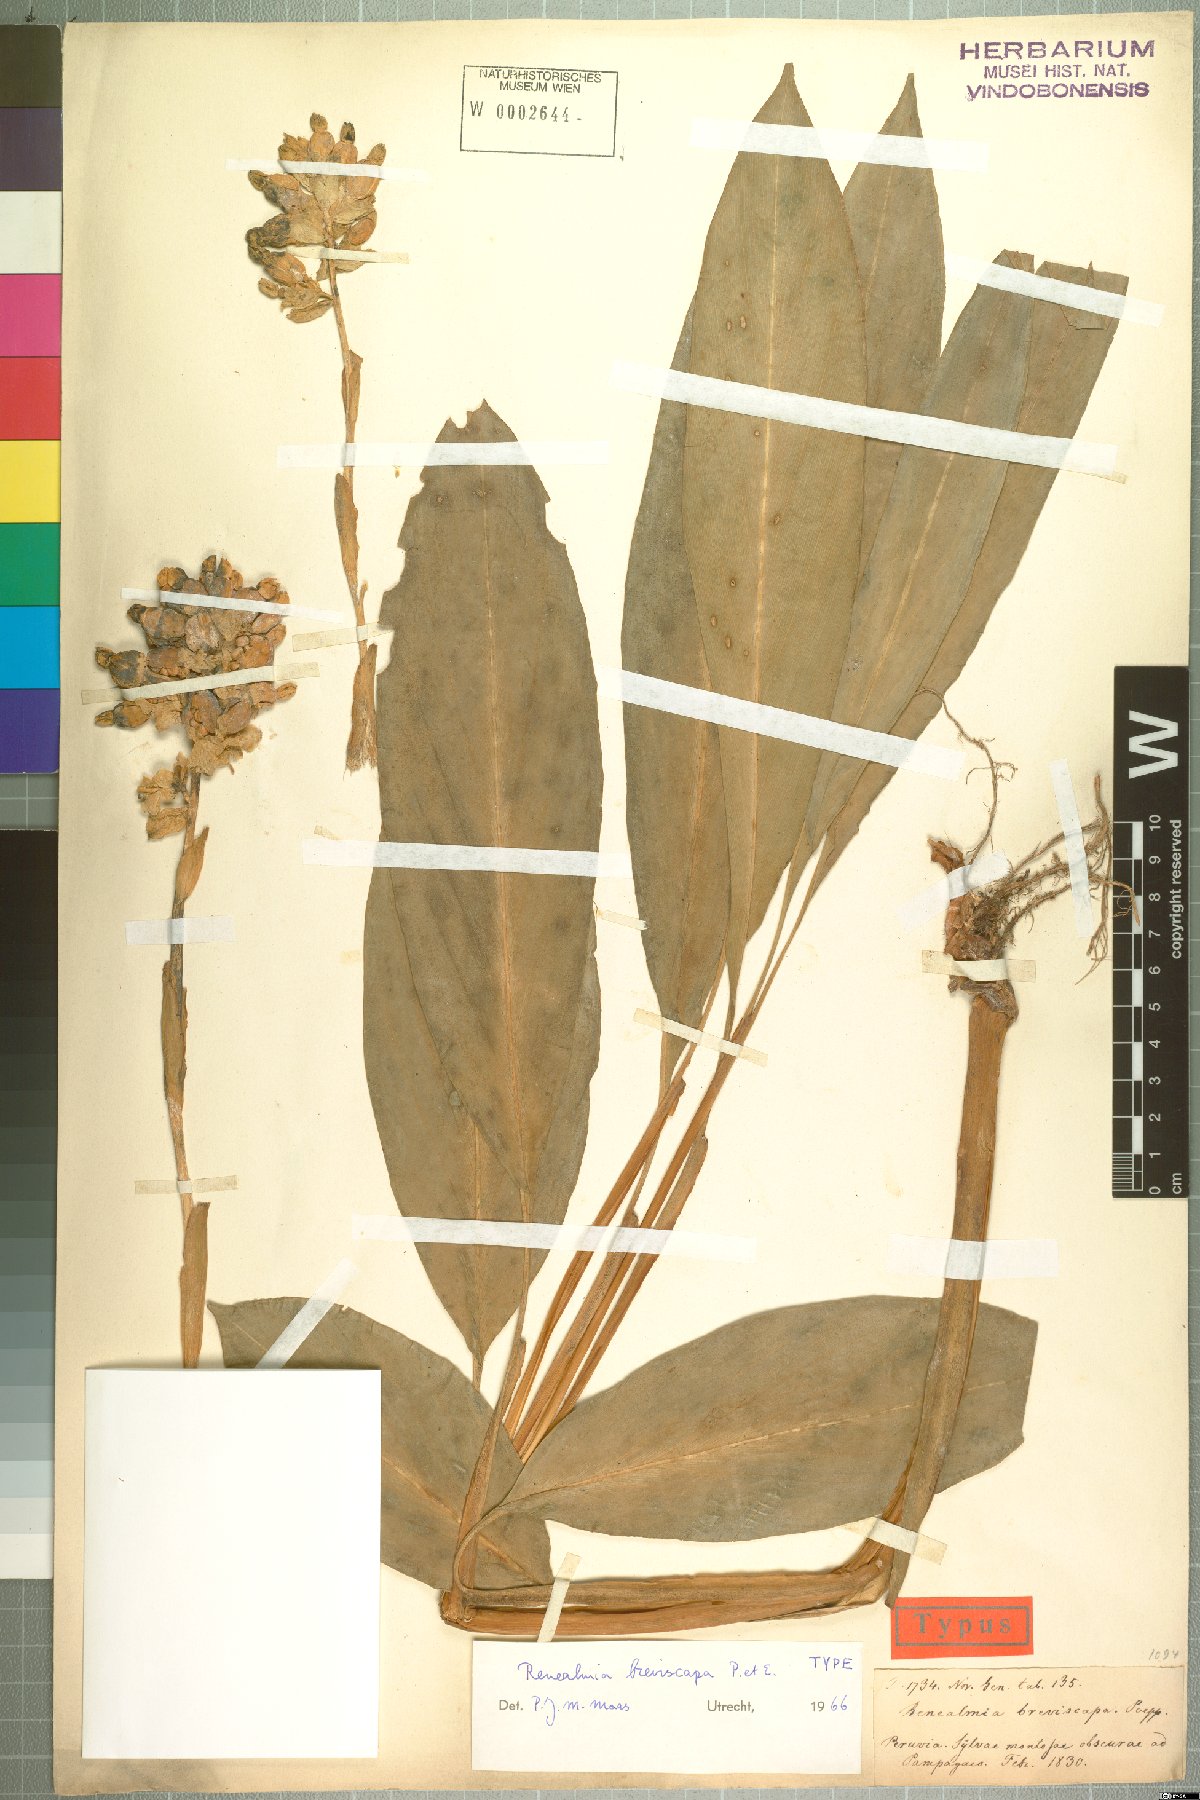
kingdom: Plantae
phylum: Tracheophyta
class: Liliopsida
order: Zingiberales
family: Zingiberaceae
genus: Renealmia
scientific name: Renealmia breviscapa
